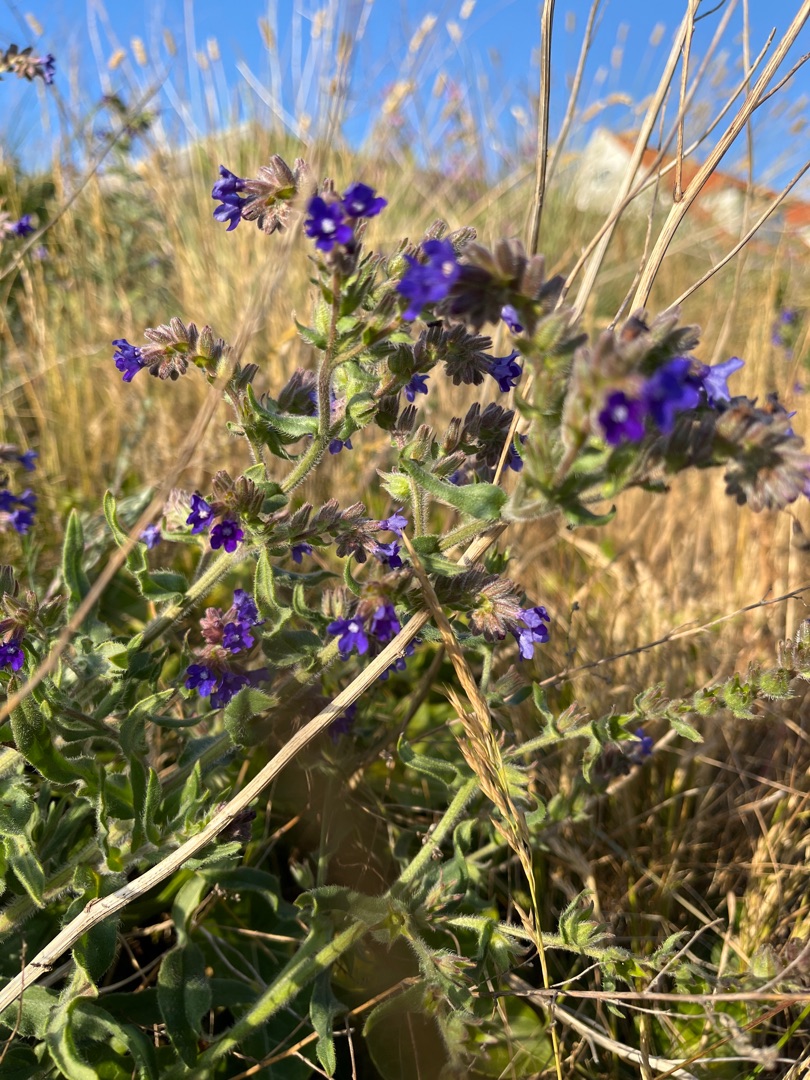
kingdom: Plantae
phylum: Tracheophyta
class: Magnoliopsida
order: Boraginales
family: Boraginaceae
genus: Anchusa
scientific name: Anchusa officinalis
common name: Læge-oksetunge
